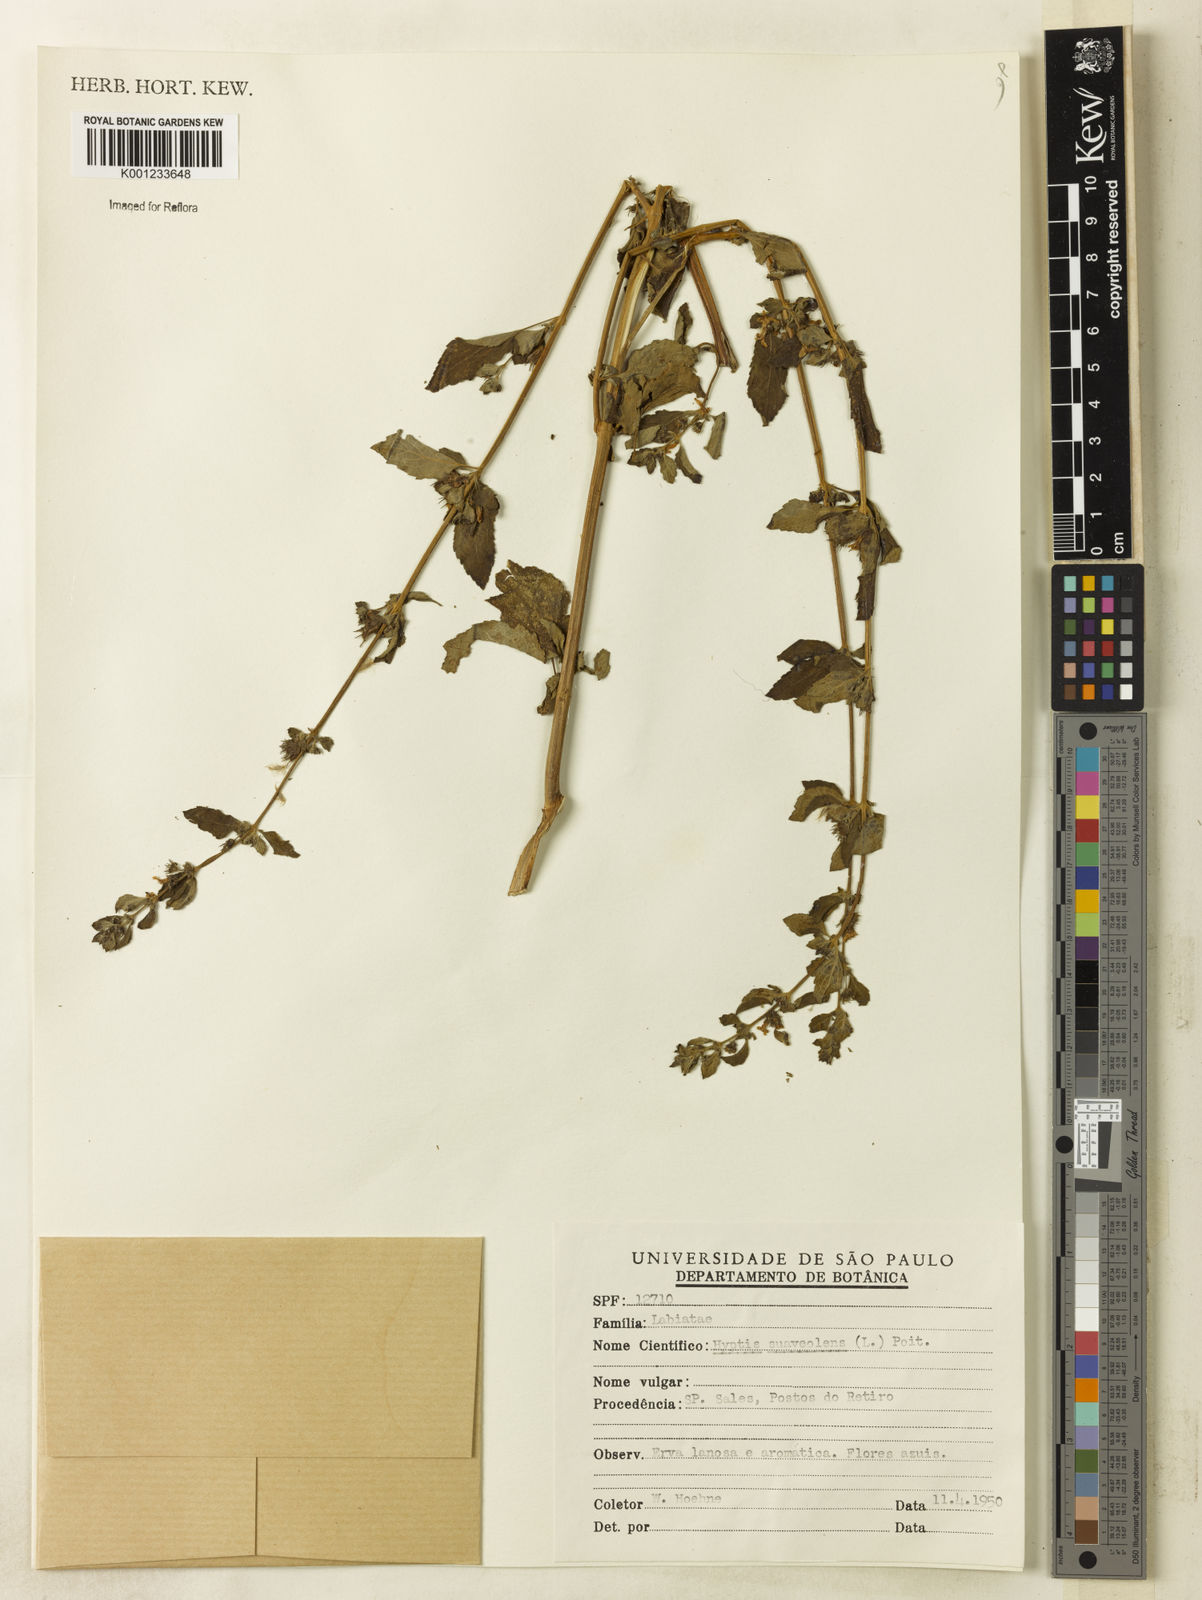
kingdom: Plantae
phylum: Tracheophyta
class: Magnoliopsida
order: Lamiales
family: Lamiaceae
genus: Mesosphaerum
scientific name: Mesosphaerum suaveolens
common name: Pignut
